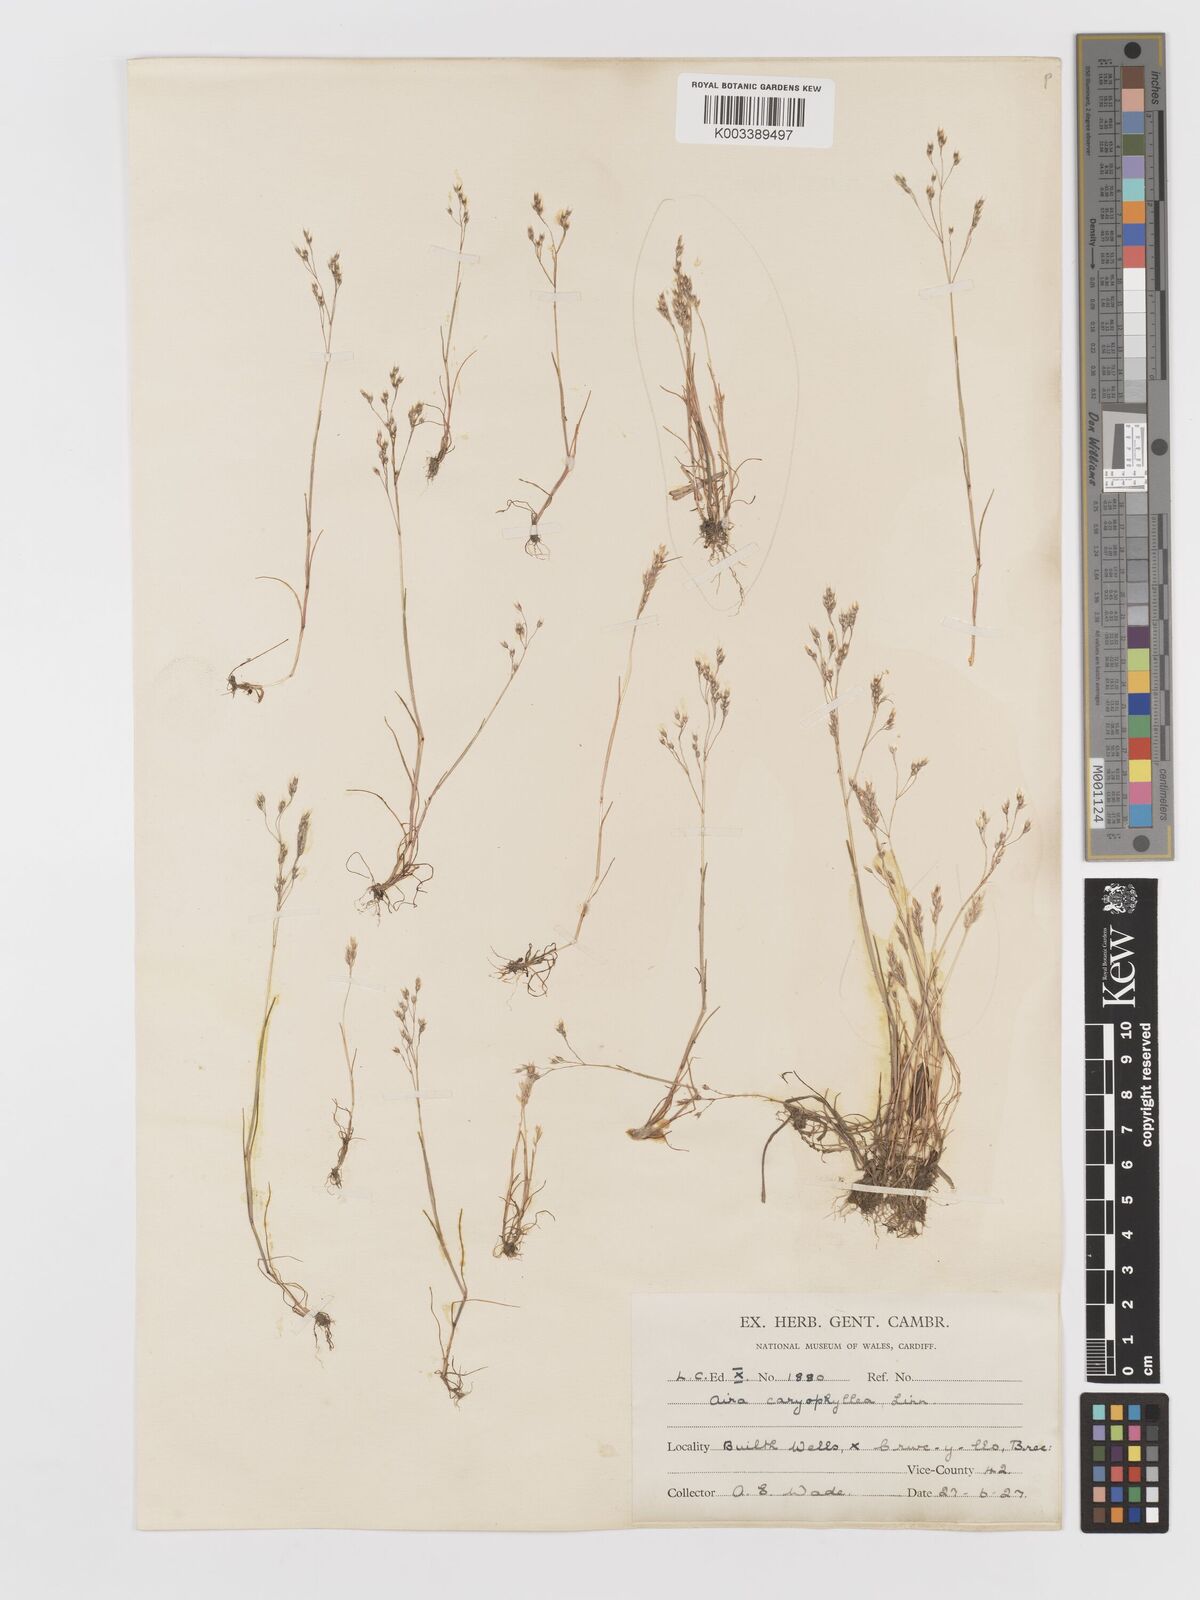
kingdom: Plantae
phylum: Tracheophyta
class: Liliopsida
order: Poales
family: Poaceae
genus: Aira
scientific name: Aira caryophyllea
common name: Silver hairgrass
